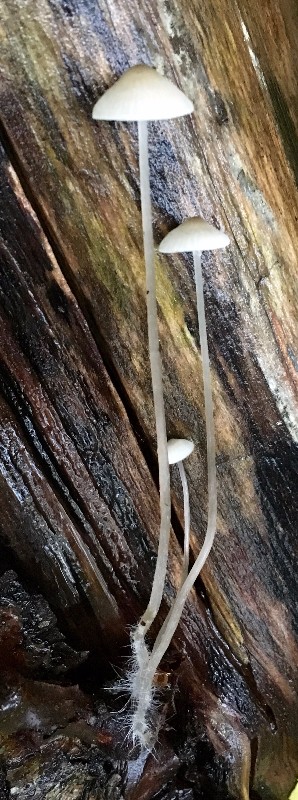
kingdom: Fungi
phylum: Basidiomycota
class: Agaricomycetes
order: Agaricales
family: Mycenaceae
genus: Mycena
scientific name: Mycena vitilis
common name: blankstokket huesvamp
